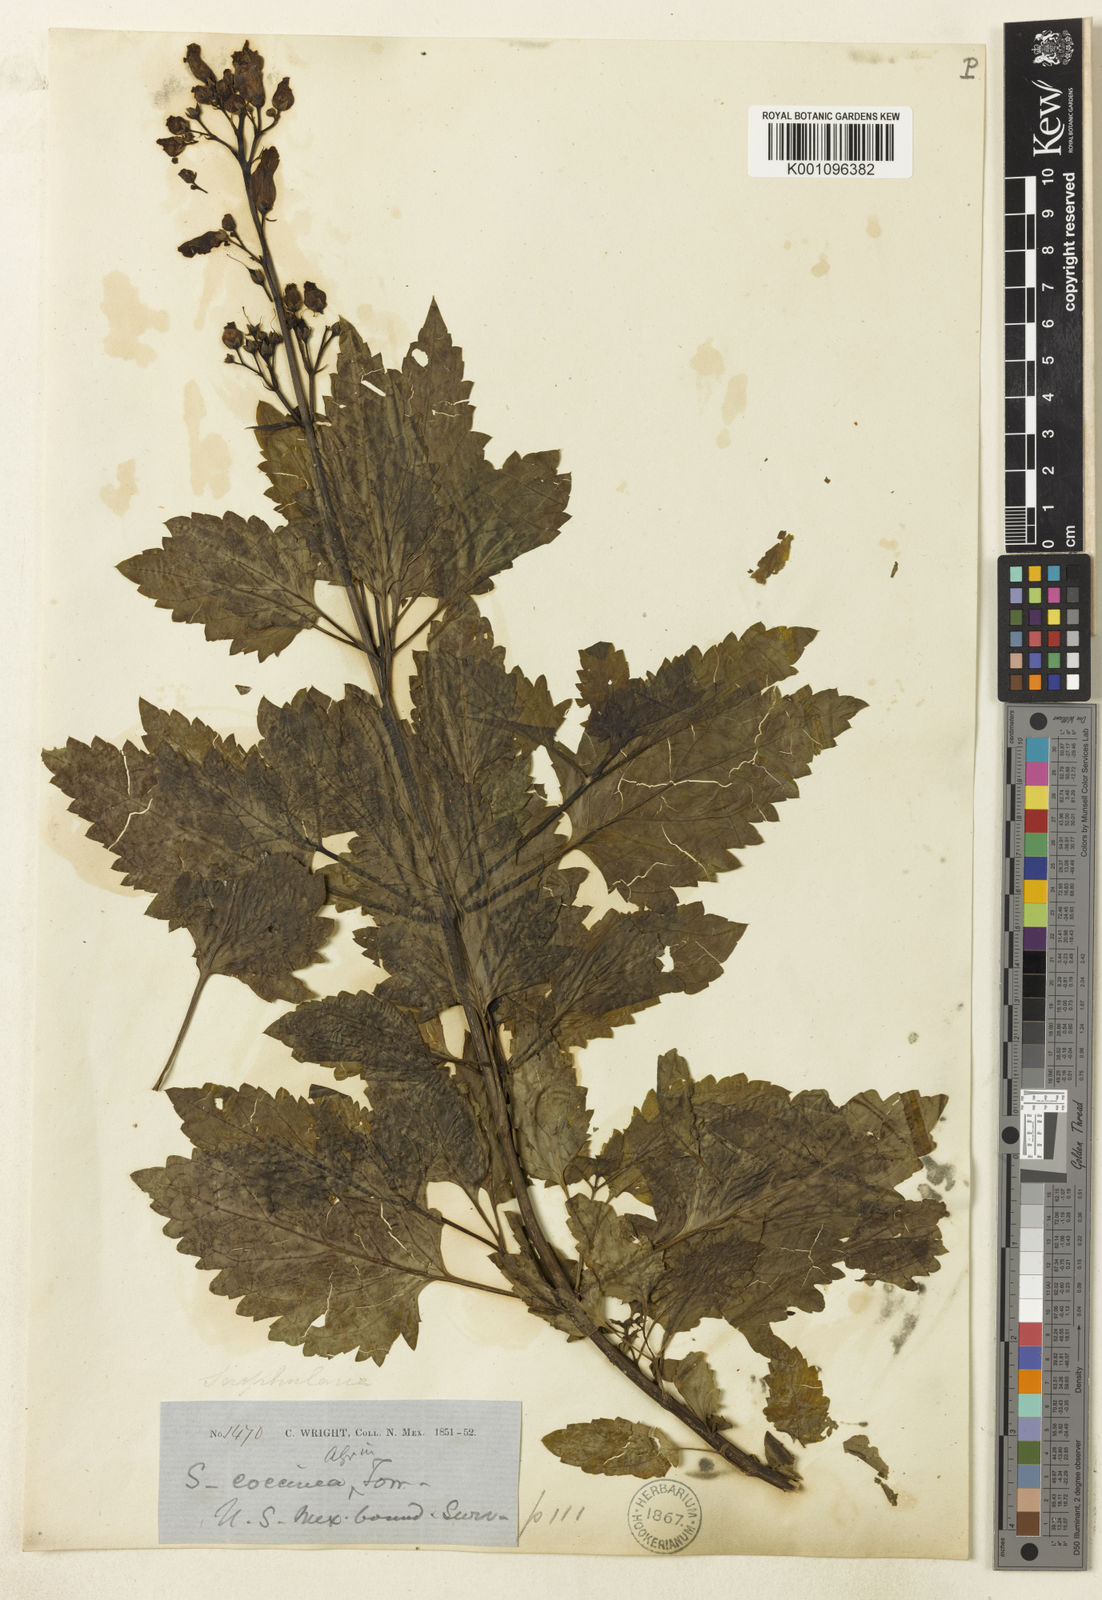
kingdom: Plantae
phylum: Tracheophyta
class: Magnoliopsida
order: Lamiales
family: Scrophulariaceae
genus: Scrophularia
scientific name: Scrophularia
